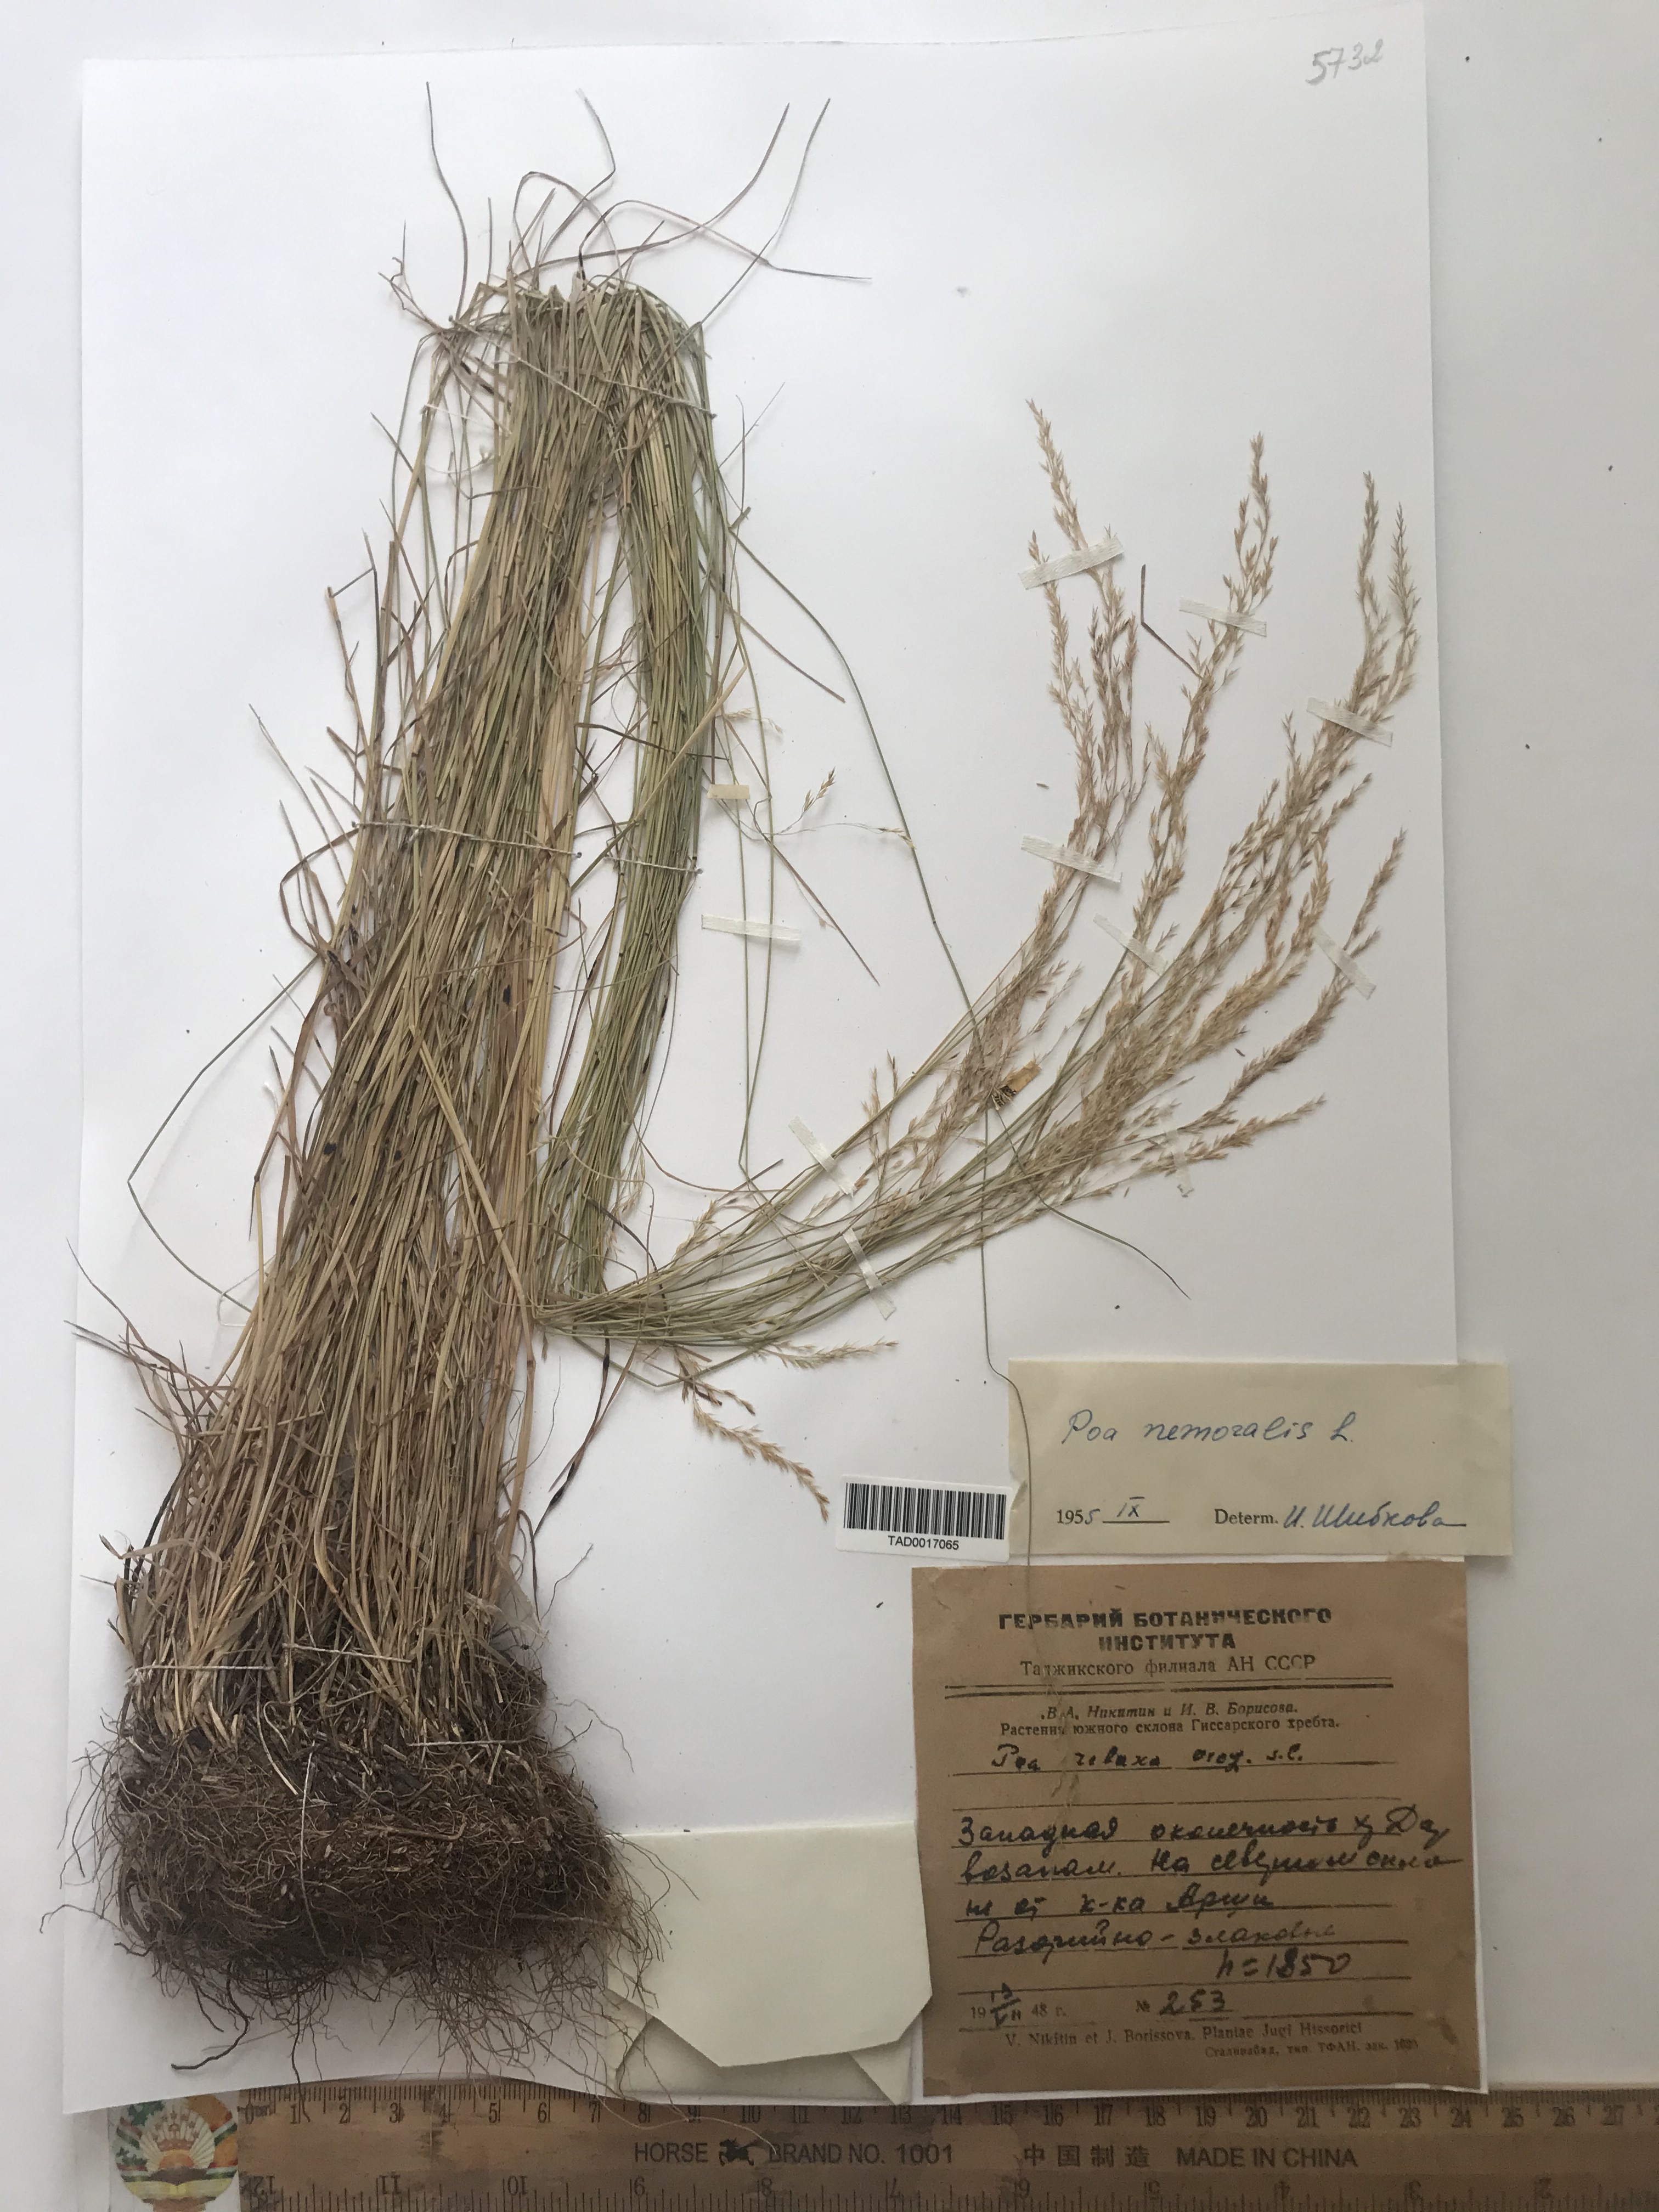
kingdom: Plantae
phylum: Tracheophyta
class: Liliopsida
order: Poales
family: Poaceae
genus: Poa
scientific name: Poa nemoralis
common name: Wood bluegrass
